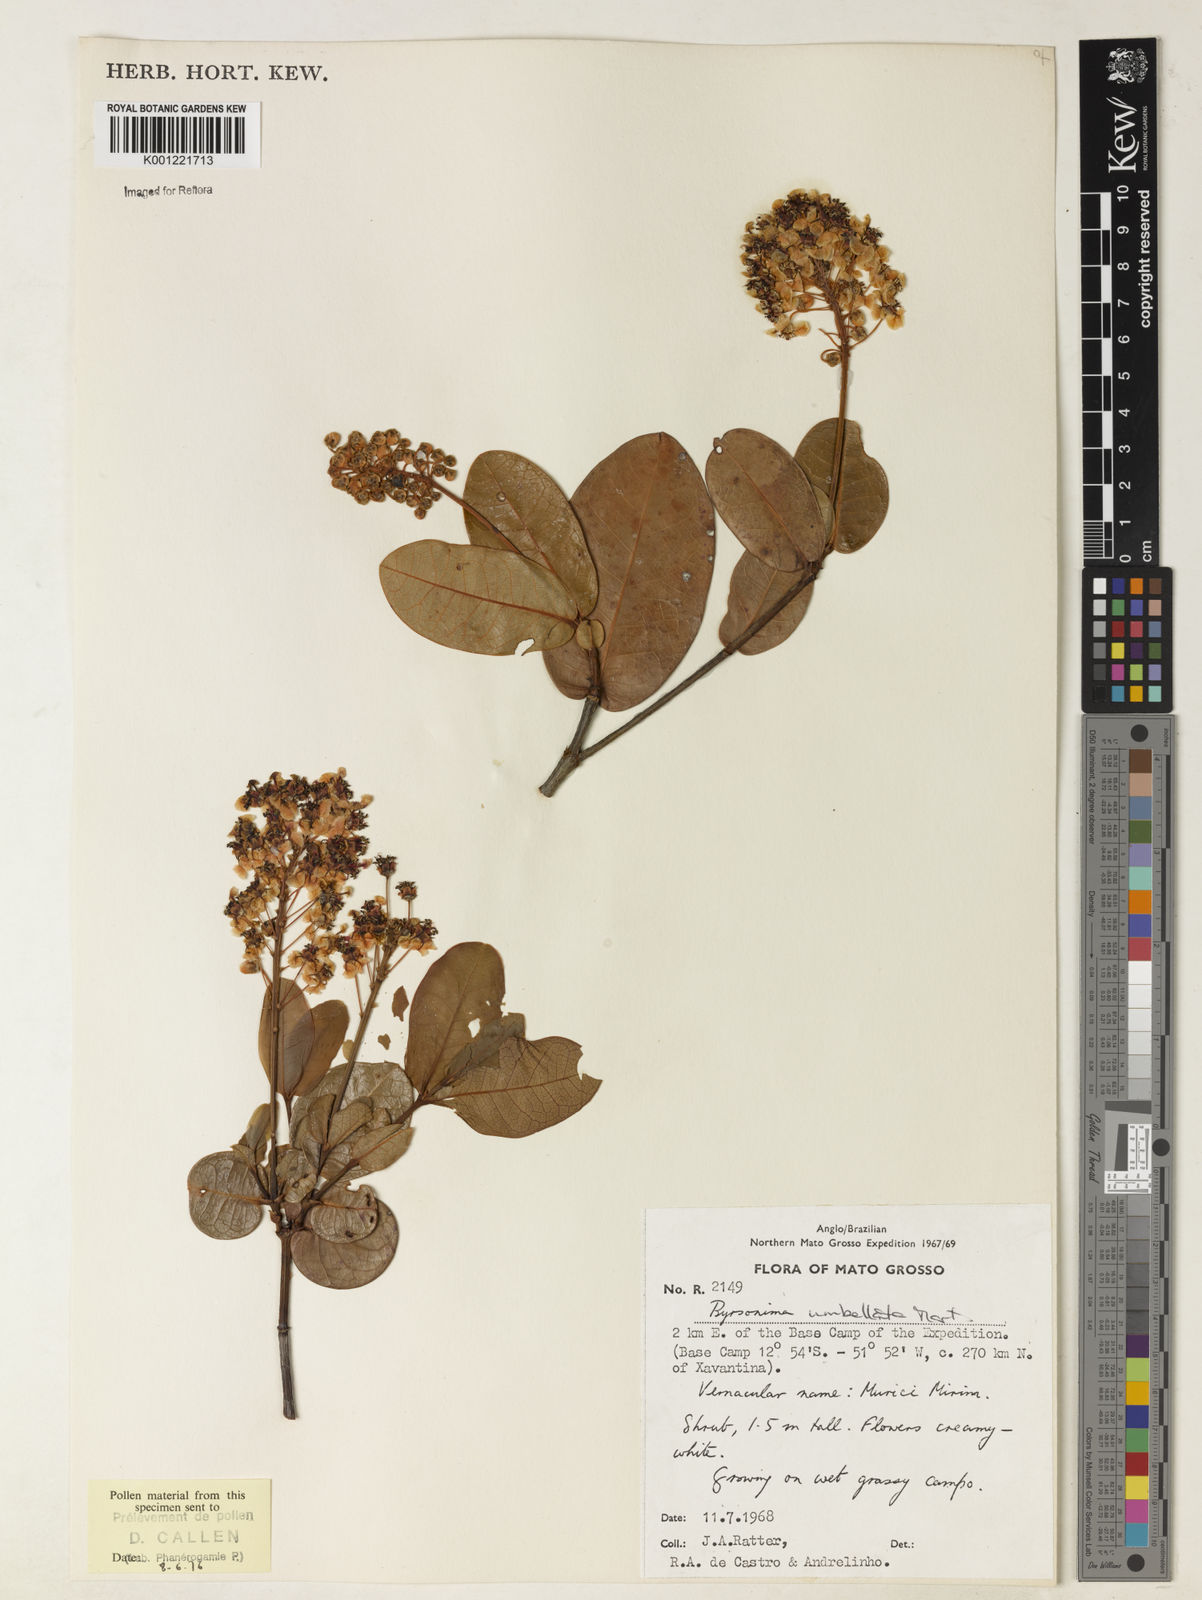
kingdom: Plantae
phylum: Tracheophyta
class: Magnoliopsida
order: Malpighiales
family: Malpighiaceae
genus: Byrsonima
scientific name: Byrsonima umbellata
